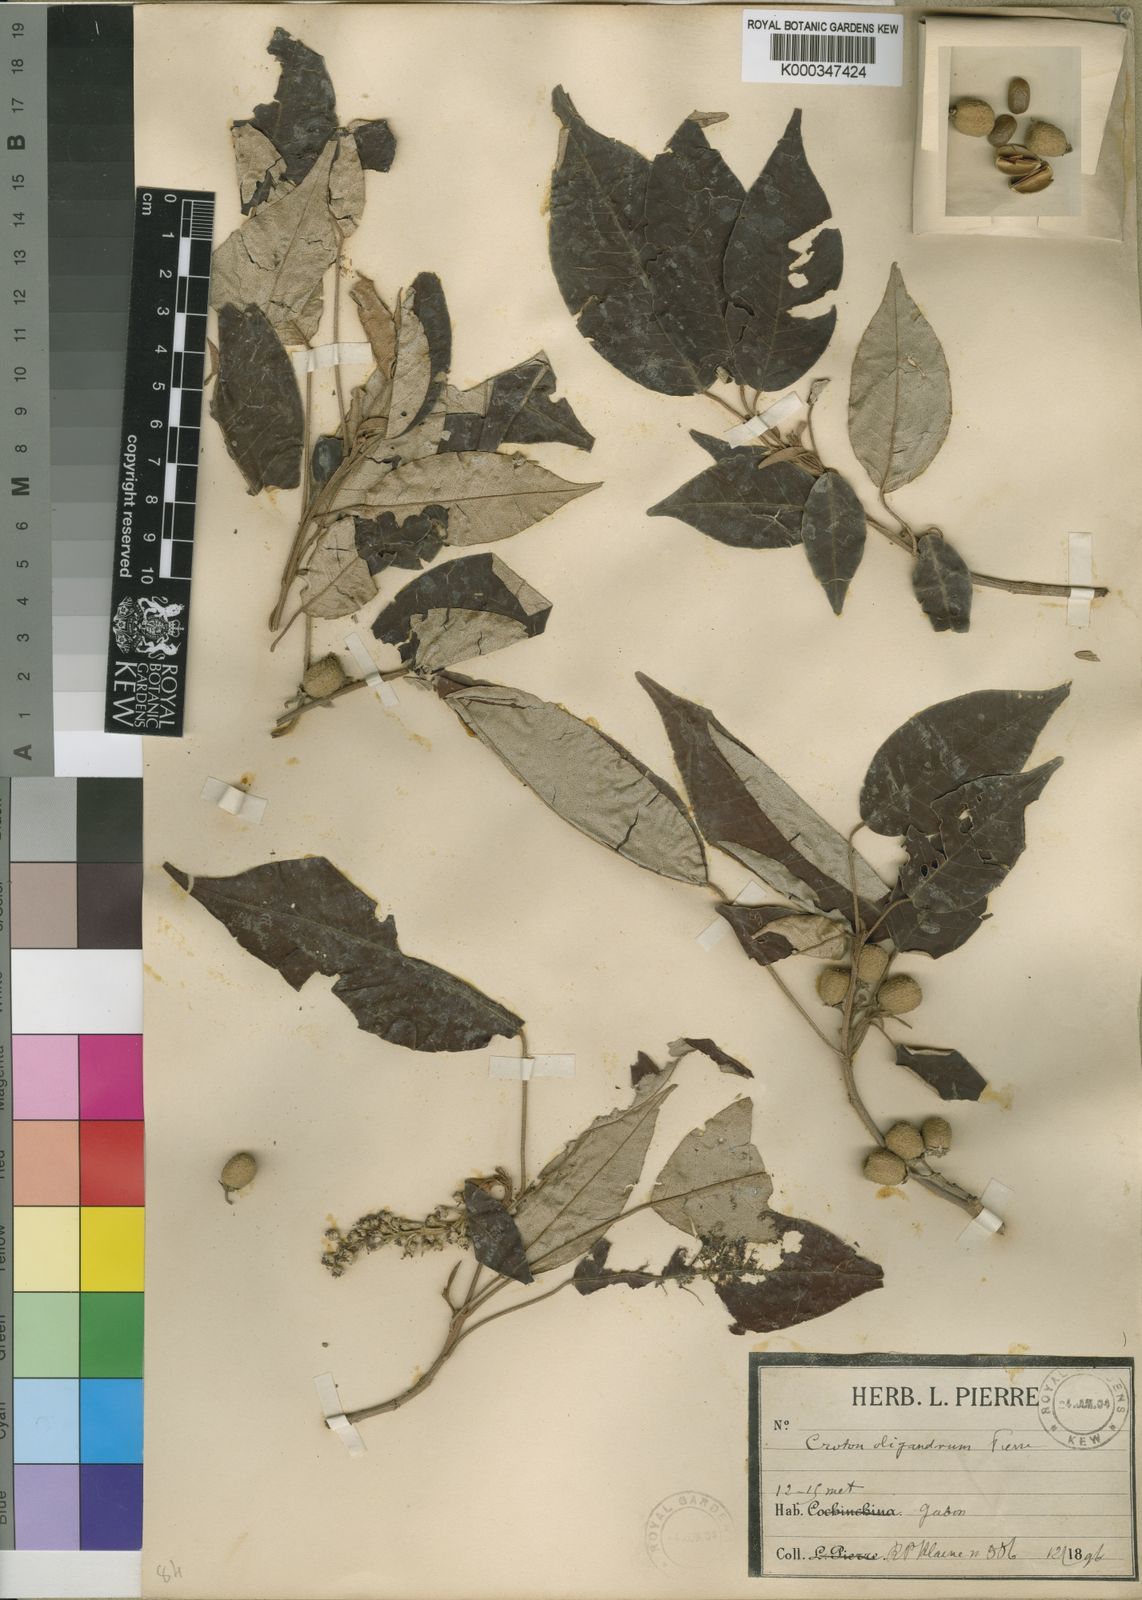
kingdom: Plantae
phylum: Tracheophyta
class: Magnoliopsida
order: Malpighiales
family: Euphorbiaceae
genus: Croton
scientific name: Croton oligandrus
